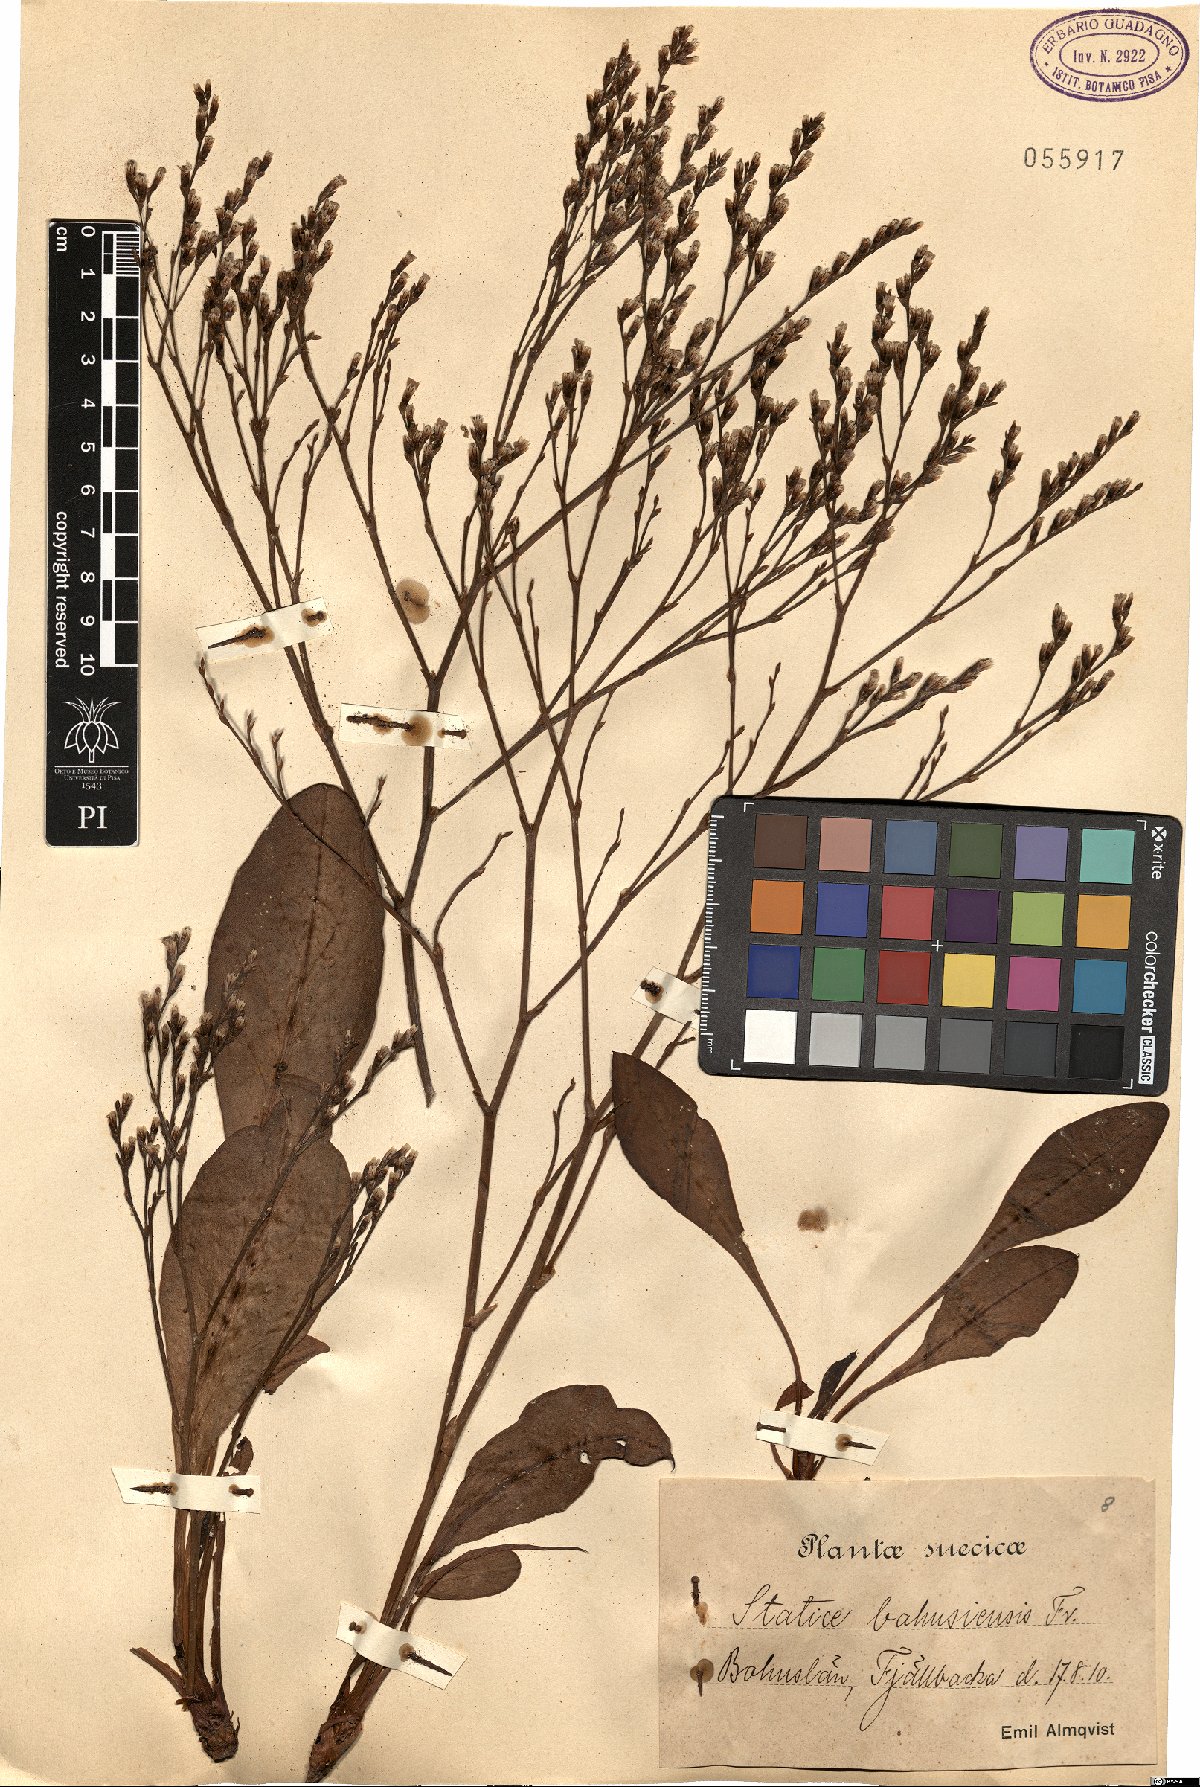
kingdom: Plantae
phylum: Tracheophyta
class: Magnoliopsida
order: Caryophyllales
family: Plumbaginaceae
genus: Limonium
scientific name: Limonium humile
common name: Lax-flowered sea-lavender
